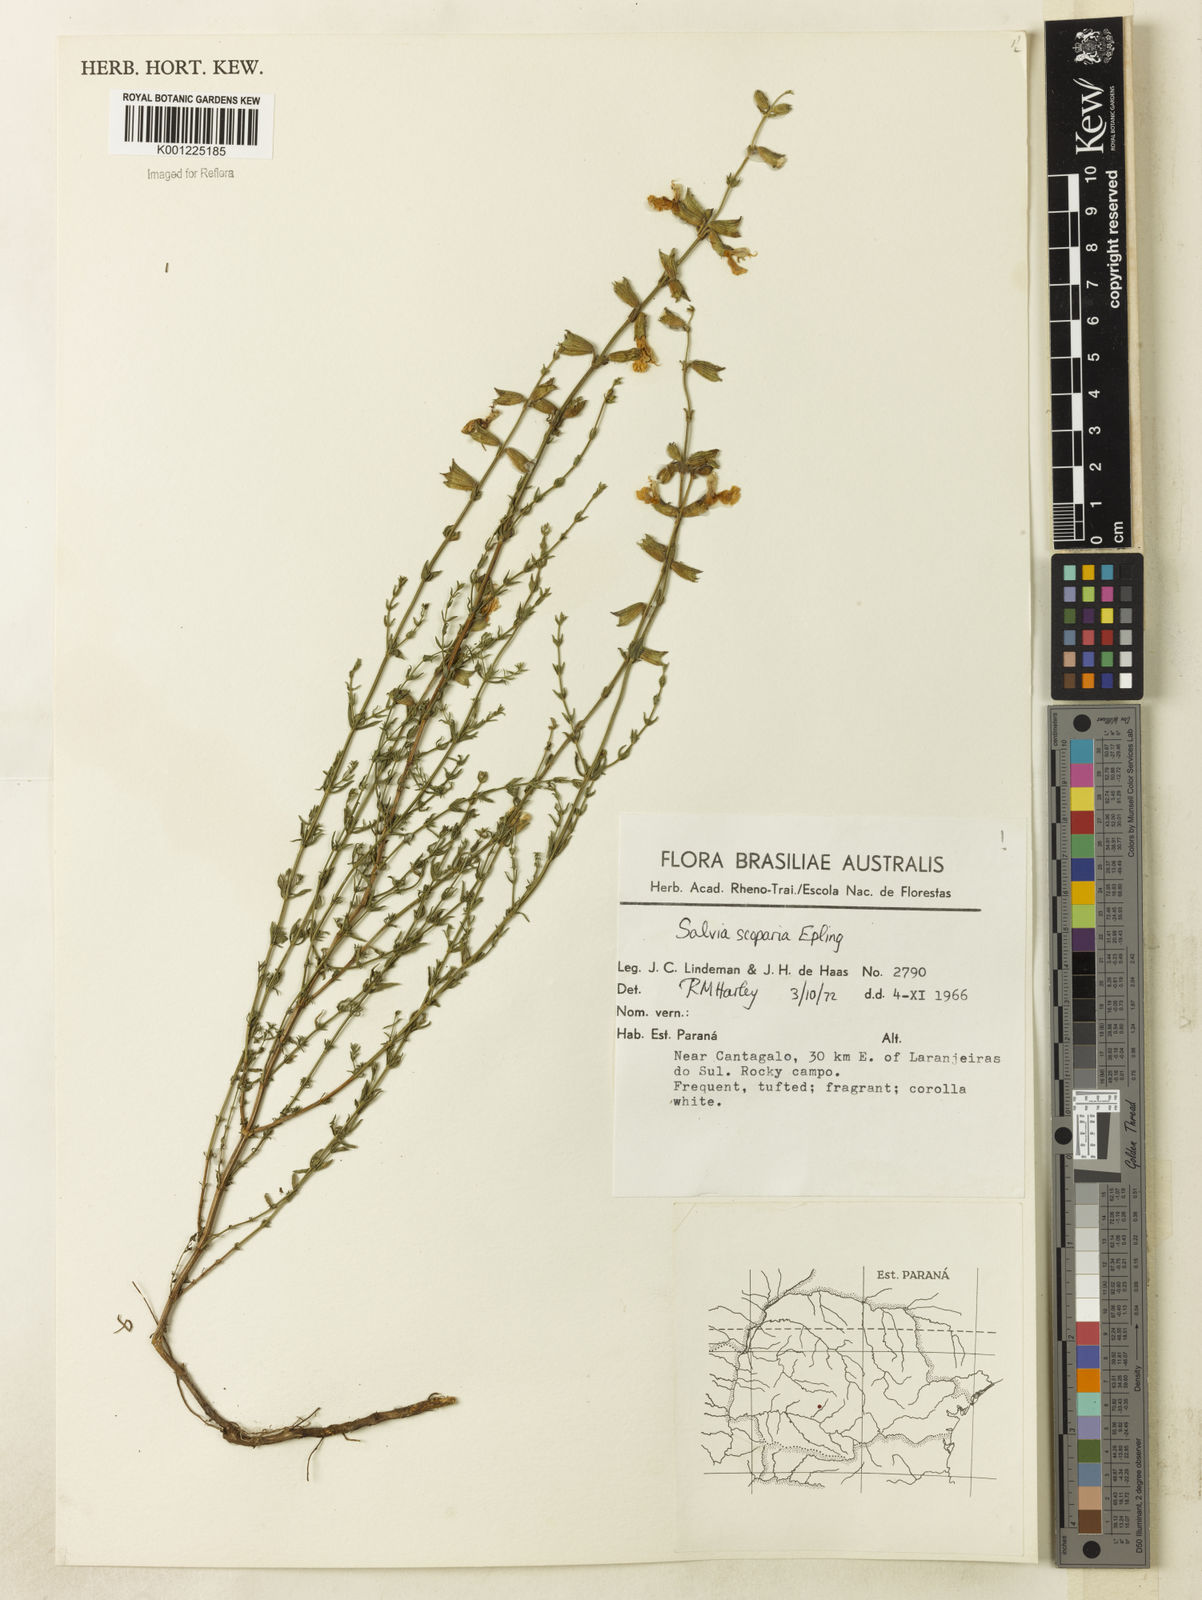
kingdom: Plantae
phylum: Tracheophyta
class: Magnoliopsida
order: Lamiales
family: Lamiaceae
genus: Salvia
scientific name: Salvia scoparia
